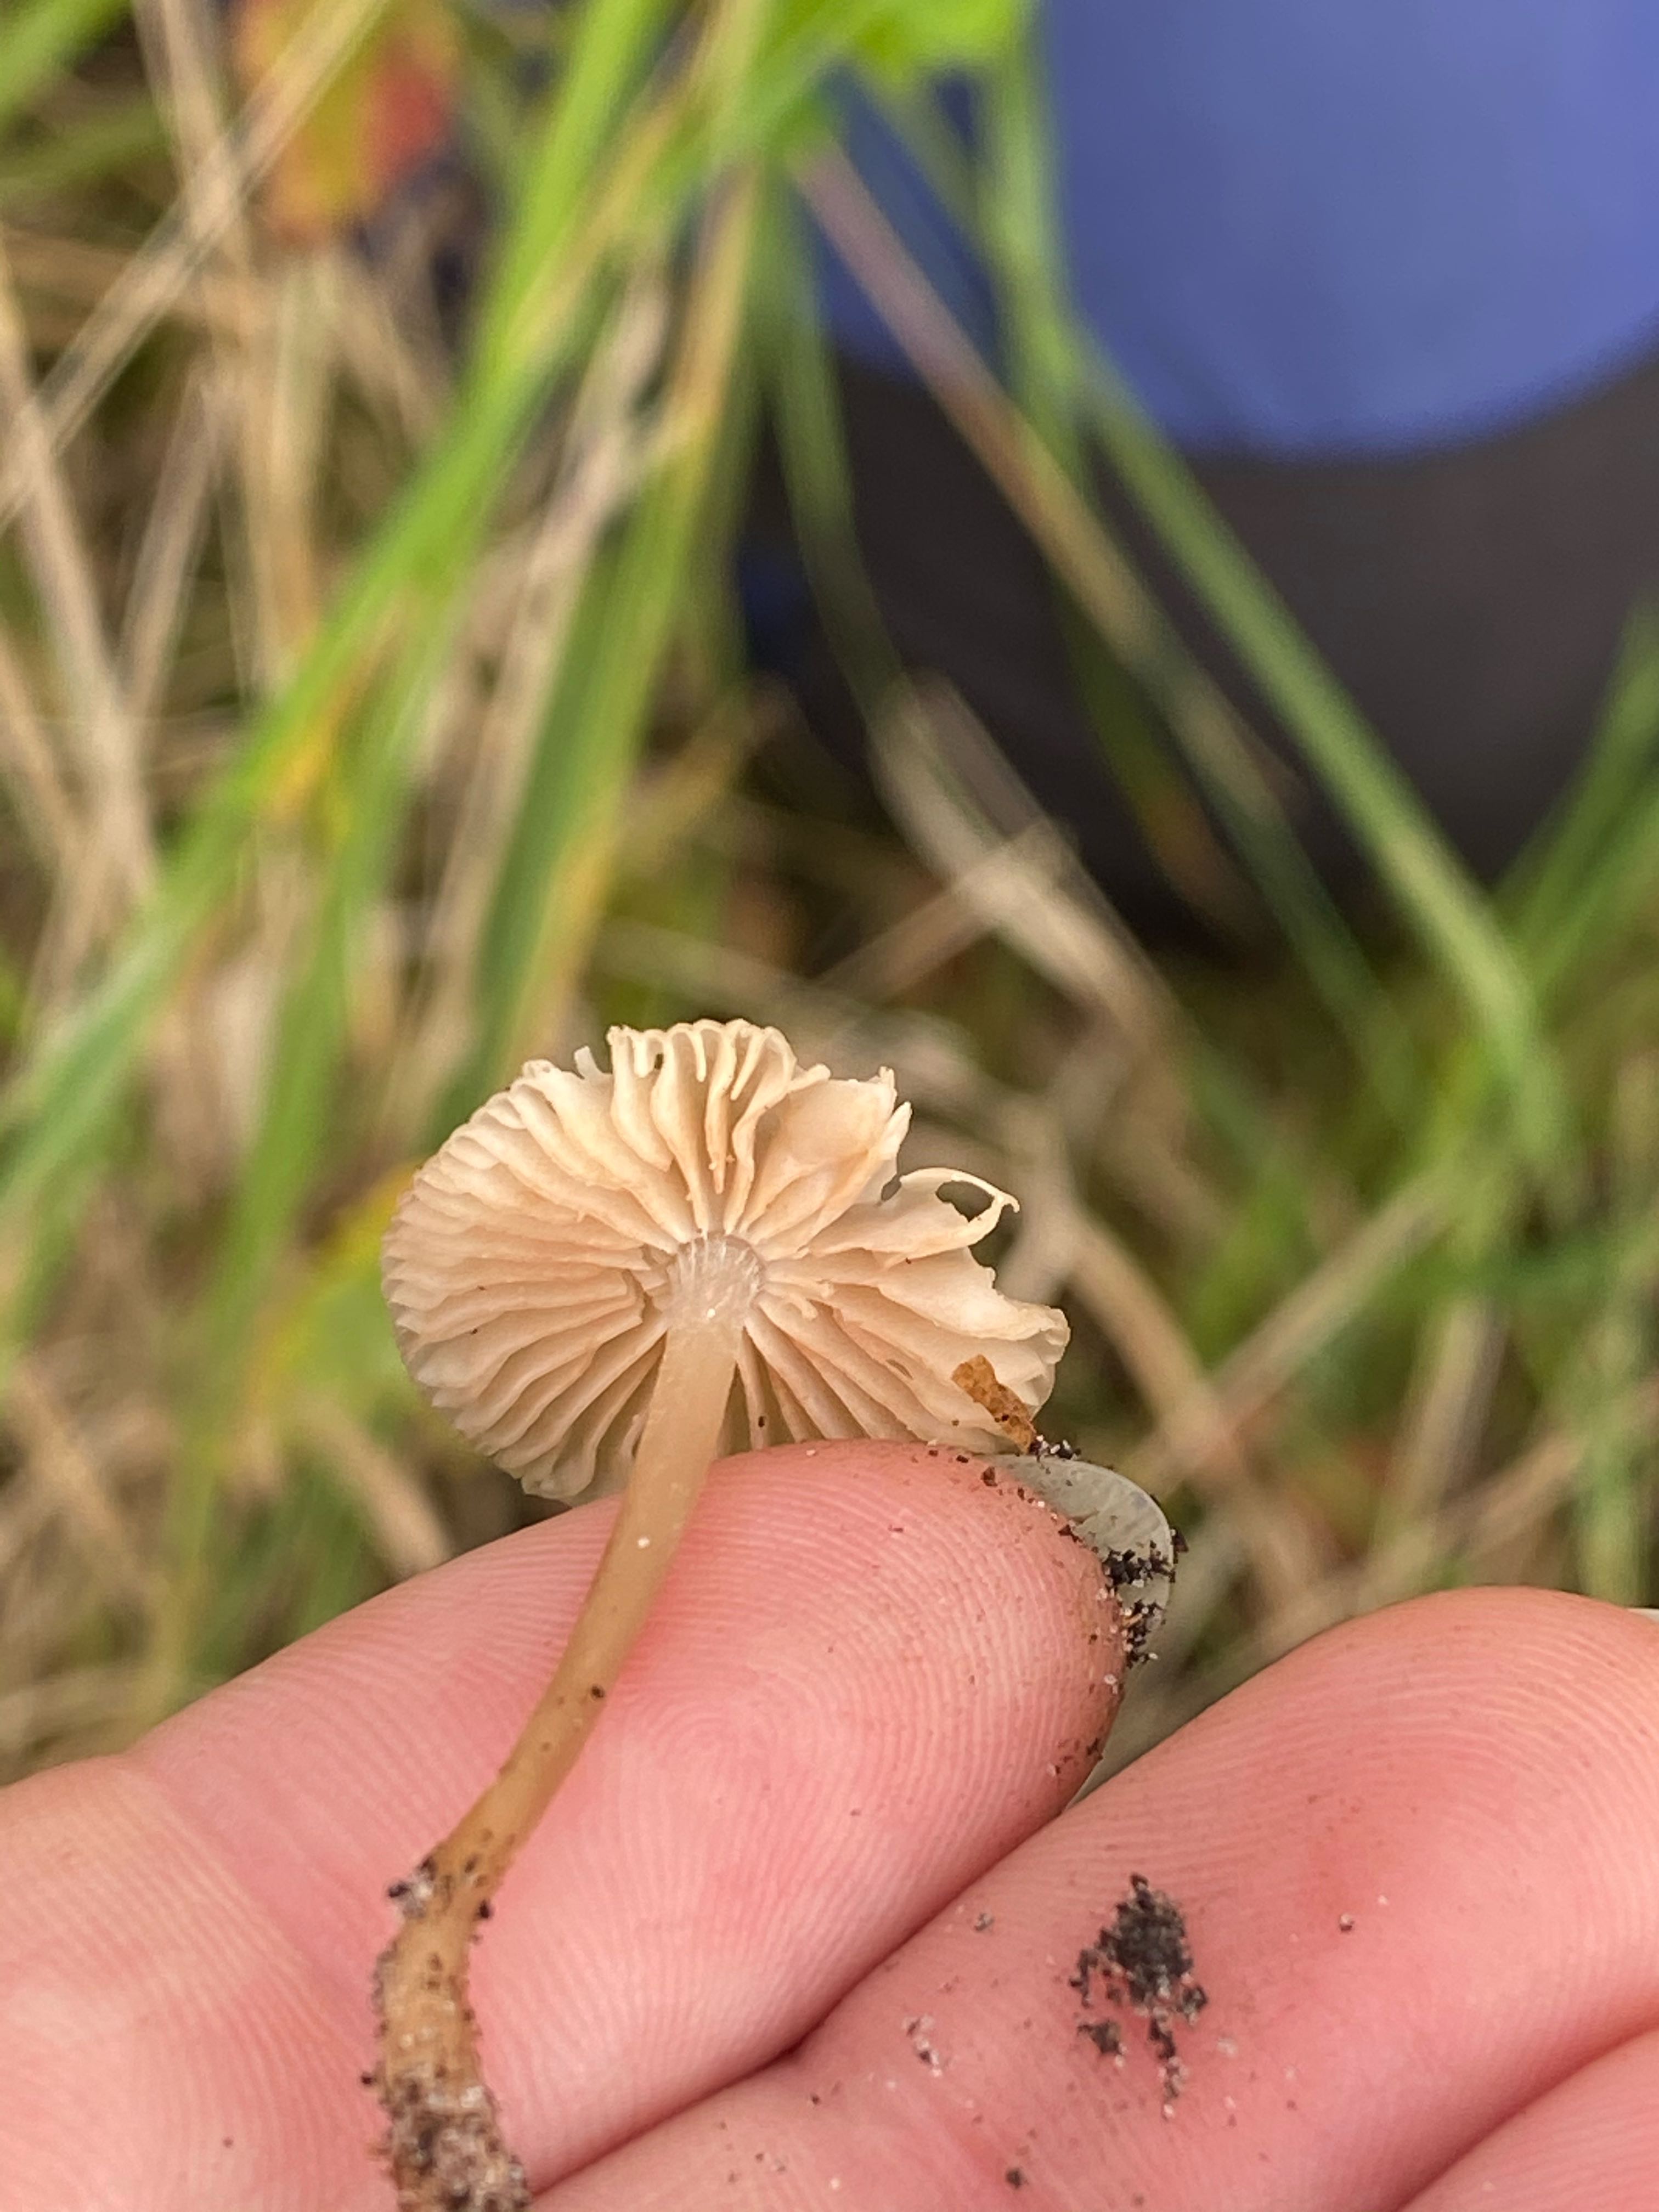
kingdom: Fungi
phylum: Basidiomycota
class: Agaricomycetes
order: Agaricales
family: Mycenaceae
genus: Mycena
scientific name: Mycena
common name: huesvamp
